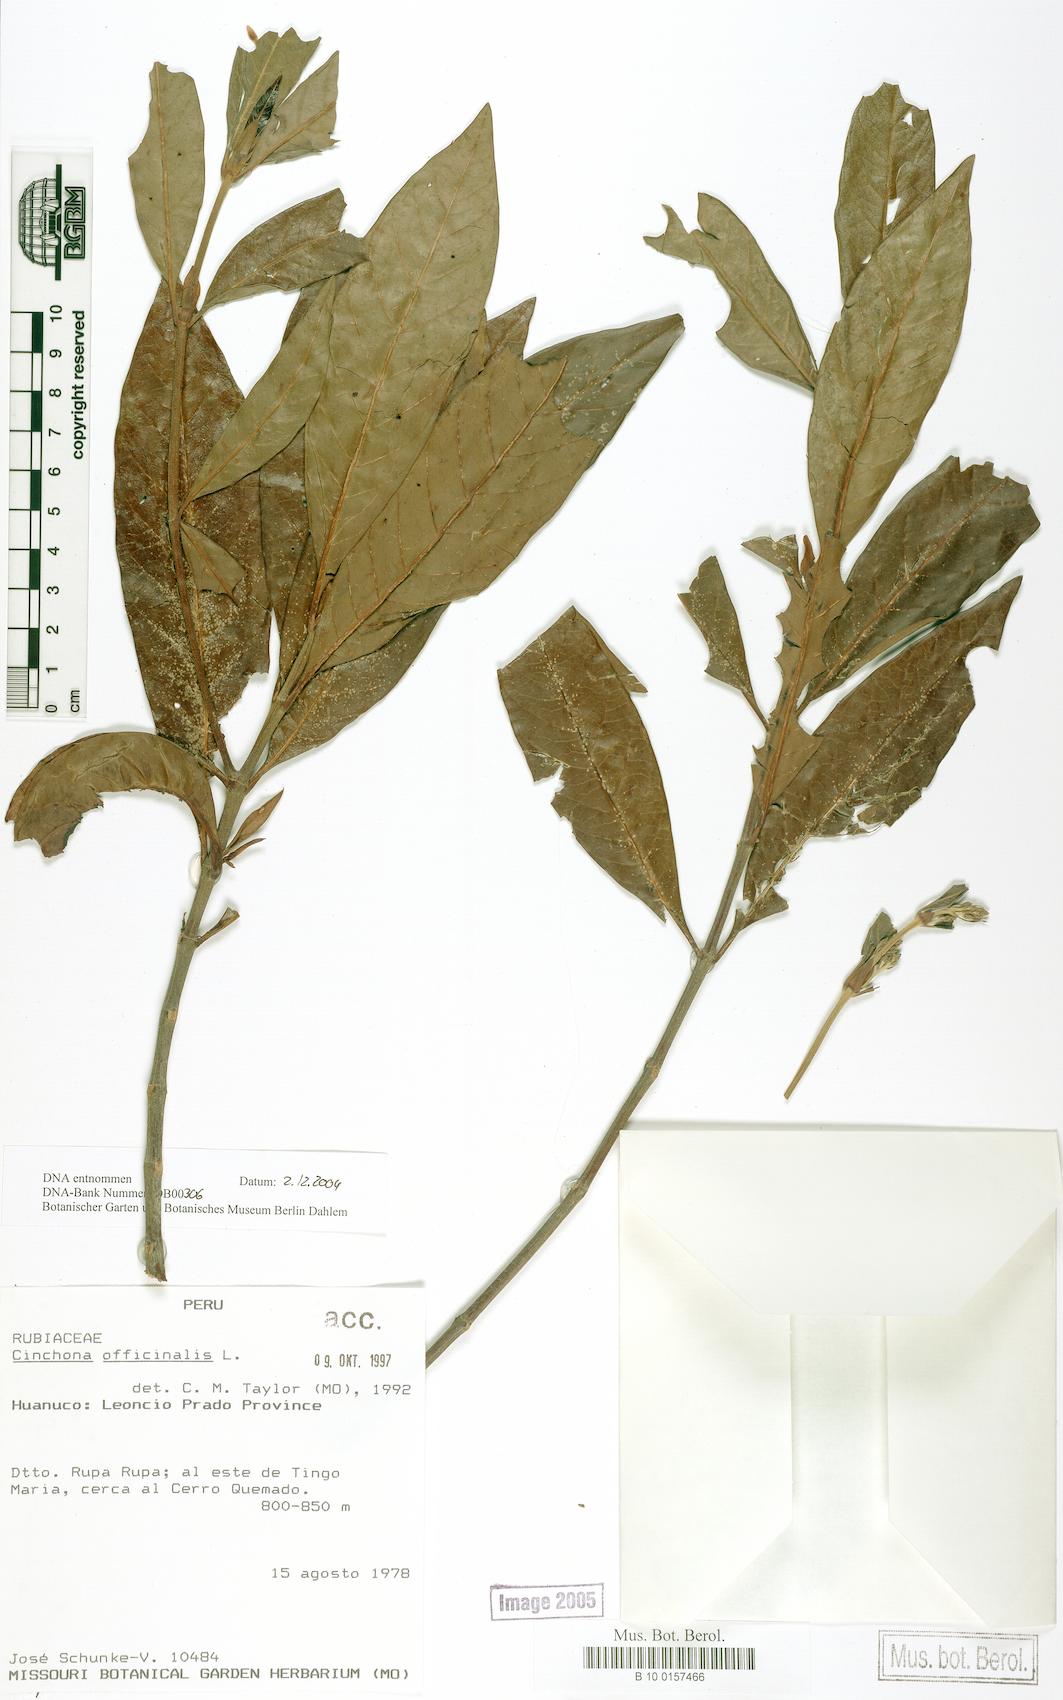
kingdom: Plantae
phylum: Tracheophyta
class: Magnoliopsida
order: Gentianales
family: Rubiaceae
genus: Cinchona
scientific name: Cinchona officinalis
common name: Lojabark
